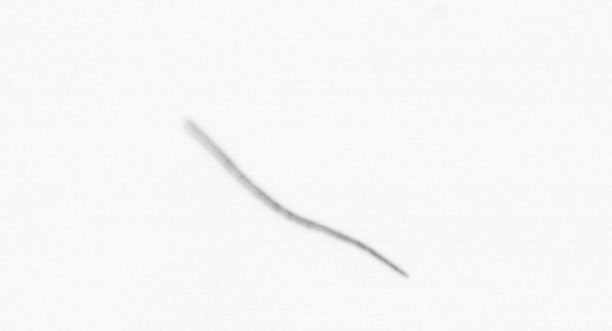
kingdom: Chromista
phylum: Ochrophyta
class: Bacillariophyceae
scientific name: Bacillariophyceae
